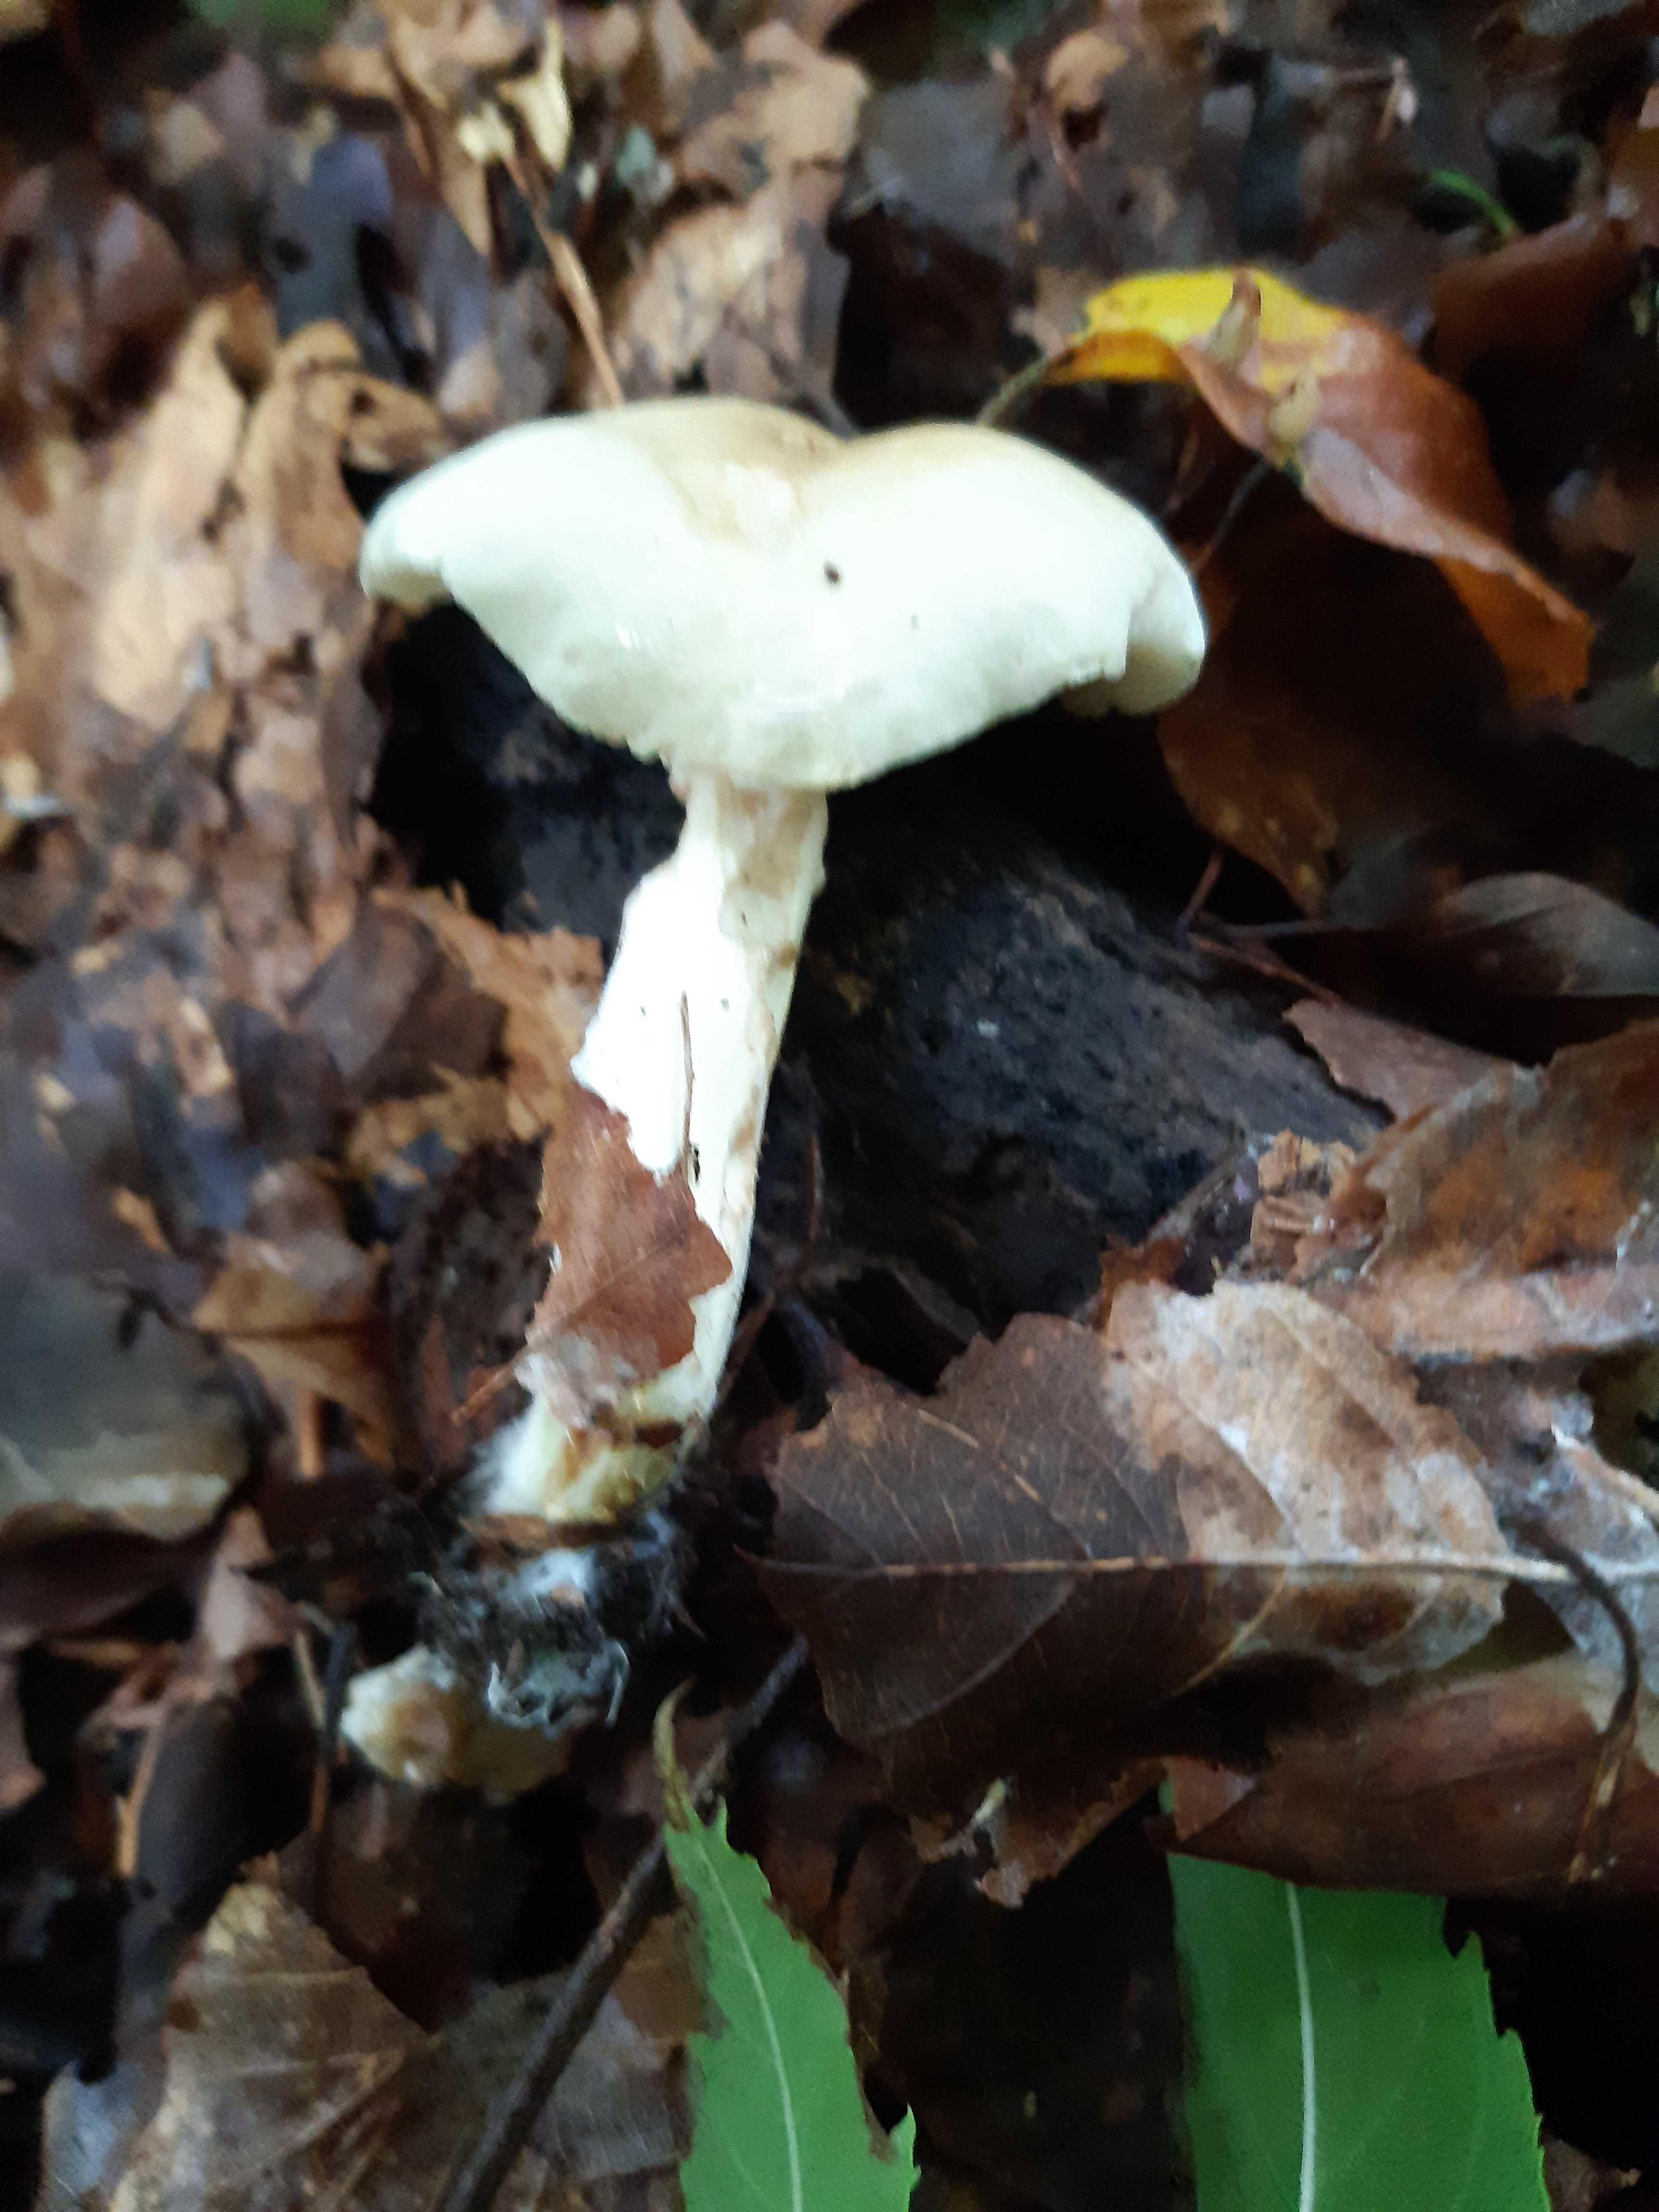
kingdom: Fungi
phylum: Basidiomycota
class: Agaricomycetes
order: Agaricales
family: Hygrophoraceae
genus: Hygrophorus
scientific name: Hygrophorus eburneus
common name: elfenbens-sneglehat
